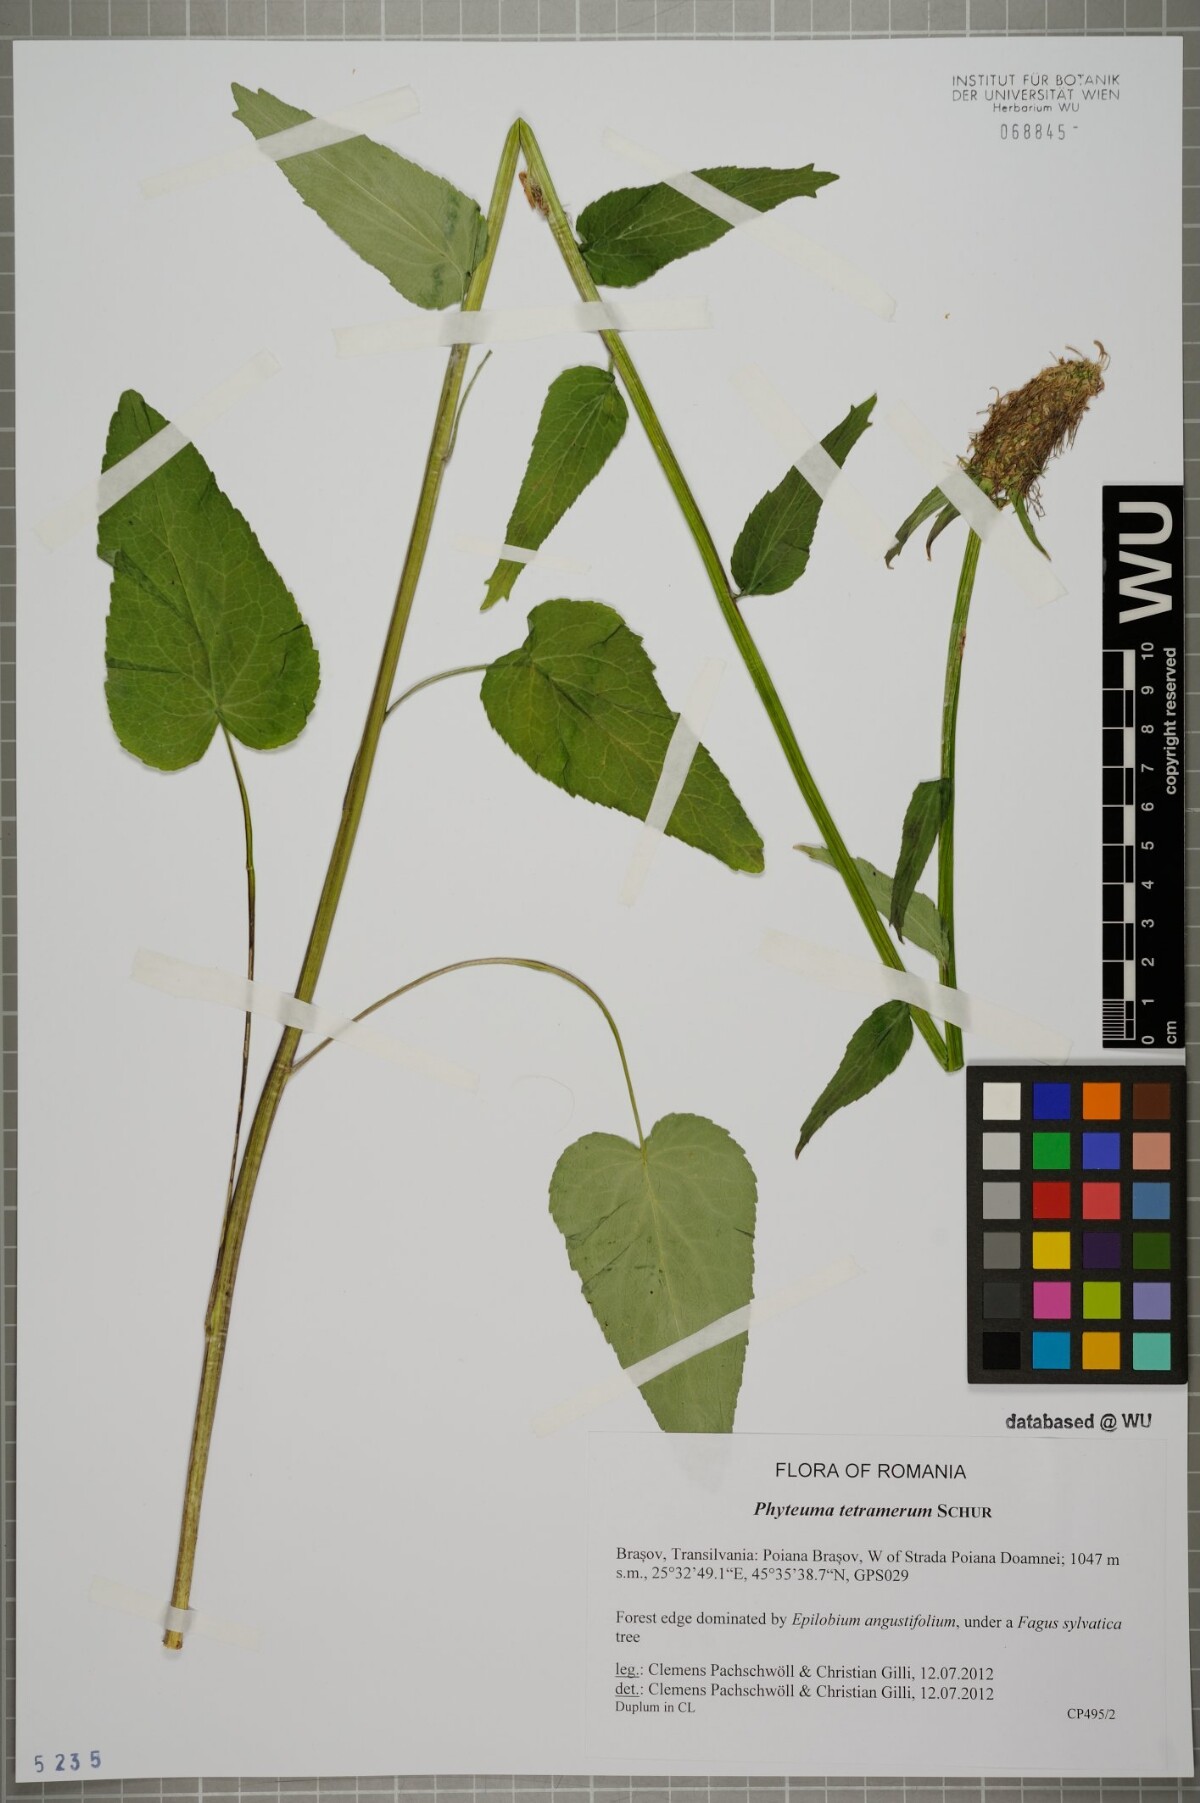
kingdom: Plantae
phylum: Tracheophyta
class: Magnoliopsida
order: Asterales
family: Campanulaceae
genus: Phyteuma
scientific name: Phyteuma tetramerum
